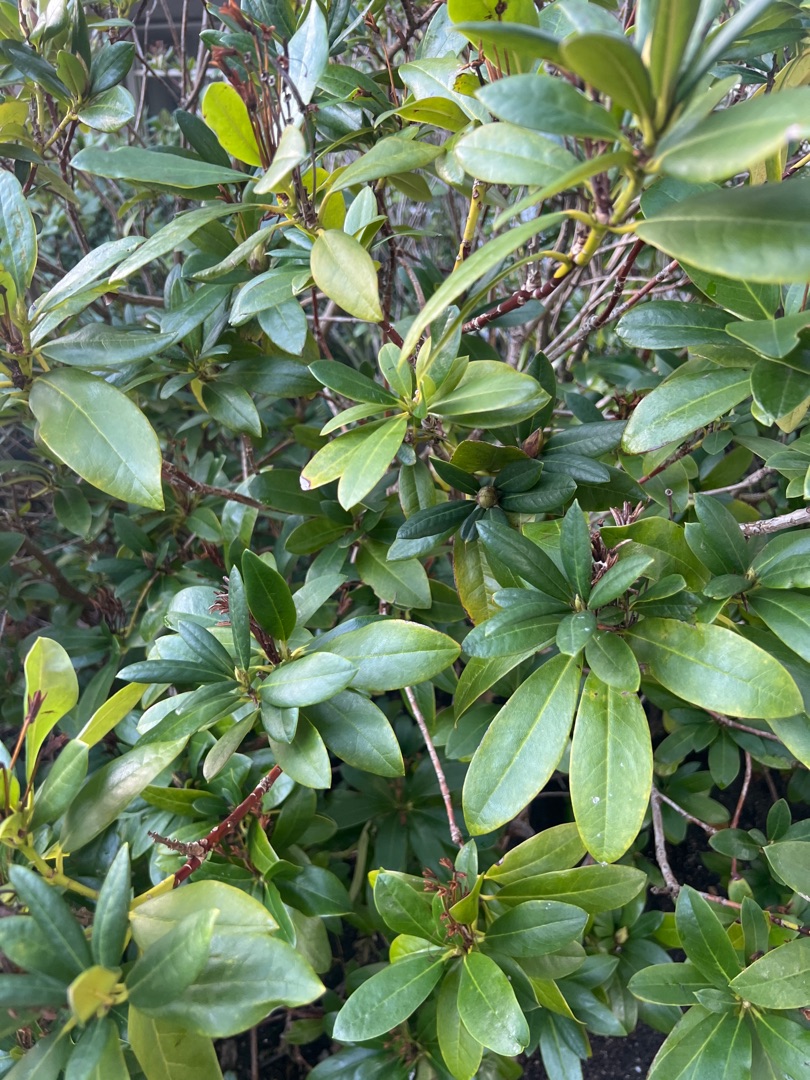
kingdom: Plantae
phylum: Tracheophyta
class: Magnoliopsida
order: Ericales
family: Ericaceae
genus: Rhododendron
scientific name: Rhododendron
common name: Rhododendronslægten
